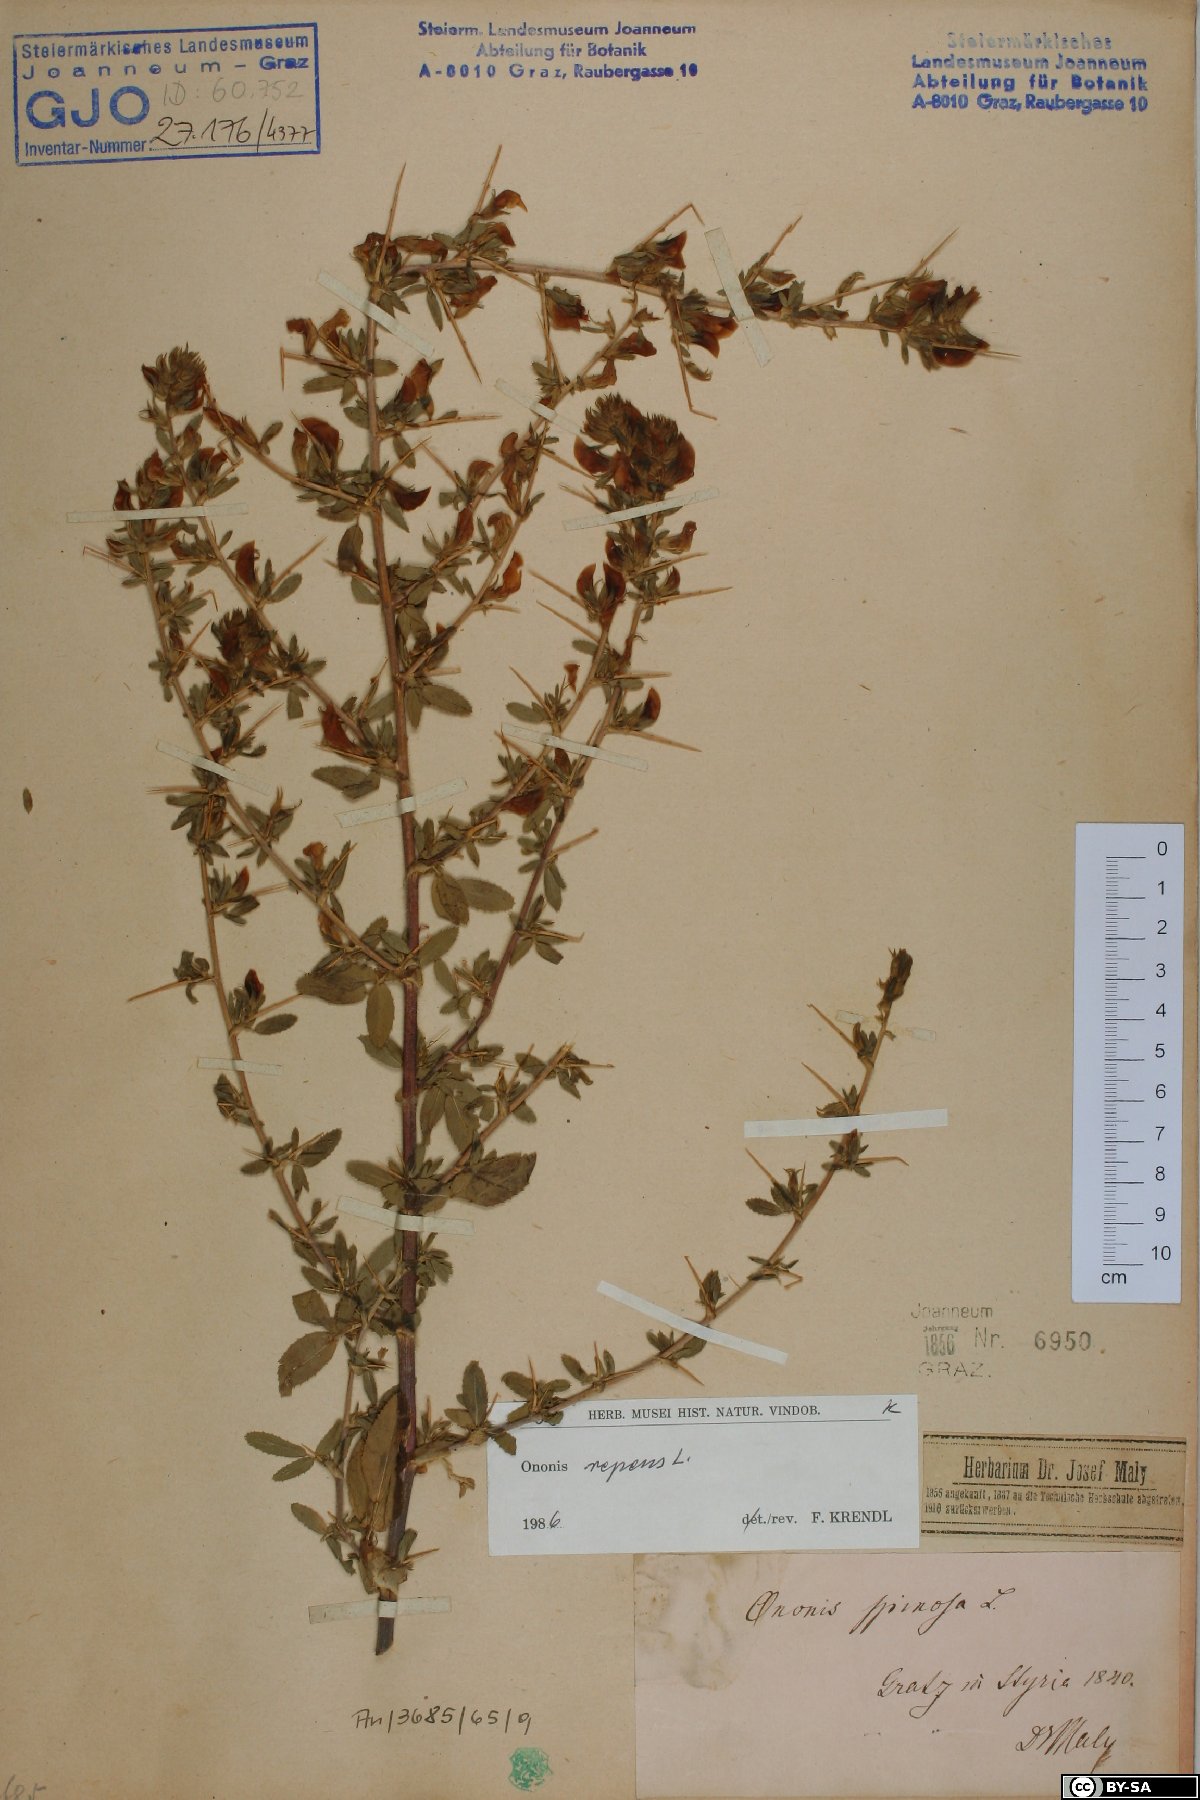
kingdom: Plantae
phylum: Tracheophyta
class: Magnoliopsida
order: Fabales
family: Fabaceae
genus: Ononis
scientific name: Ononis spinosa
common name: Spiny restharrow
